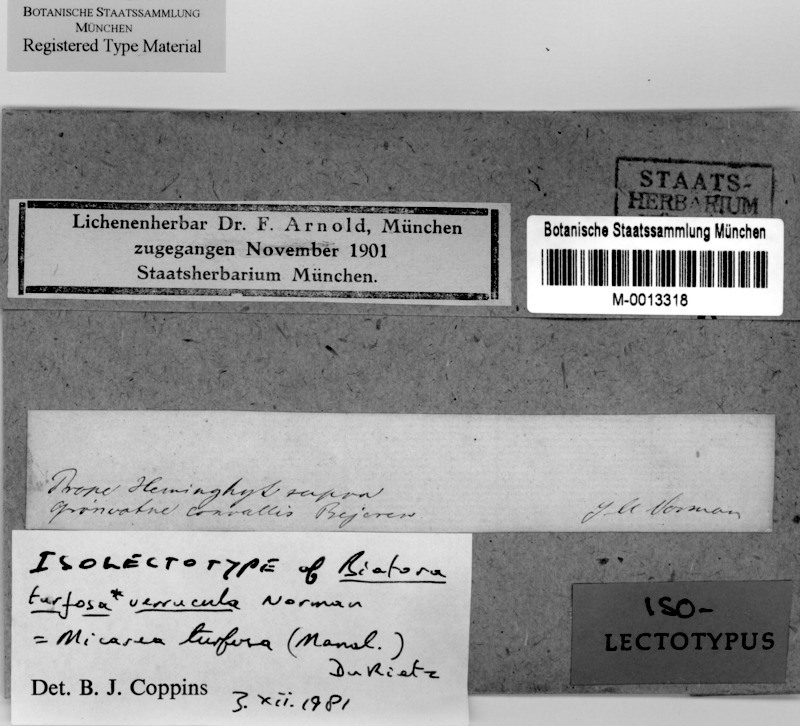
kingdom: Fungi
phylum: Ascomycota
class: Lecanoromycetes
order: Lecanorales
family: Byssolomataceae
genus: Micarea
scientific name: Micarea turfosa
